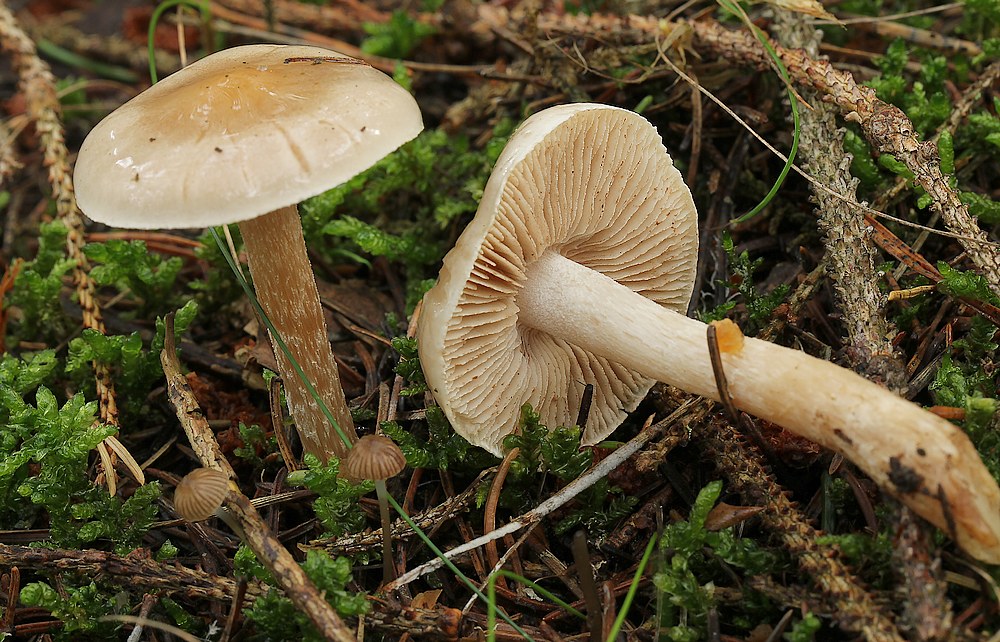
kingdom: Fungi
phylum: Basidiomycota
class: Agaricomycetes
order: Agaricales
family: Hymenogastraceae
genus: Hebeloma
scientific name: Hebeloma
